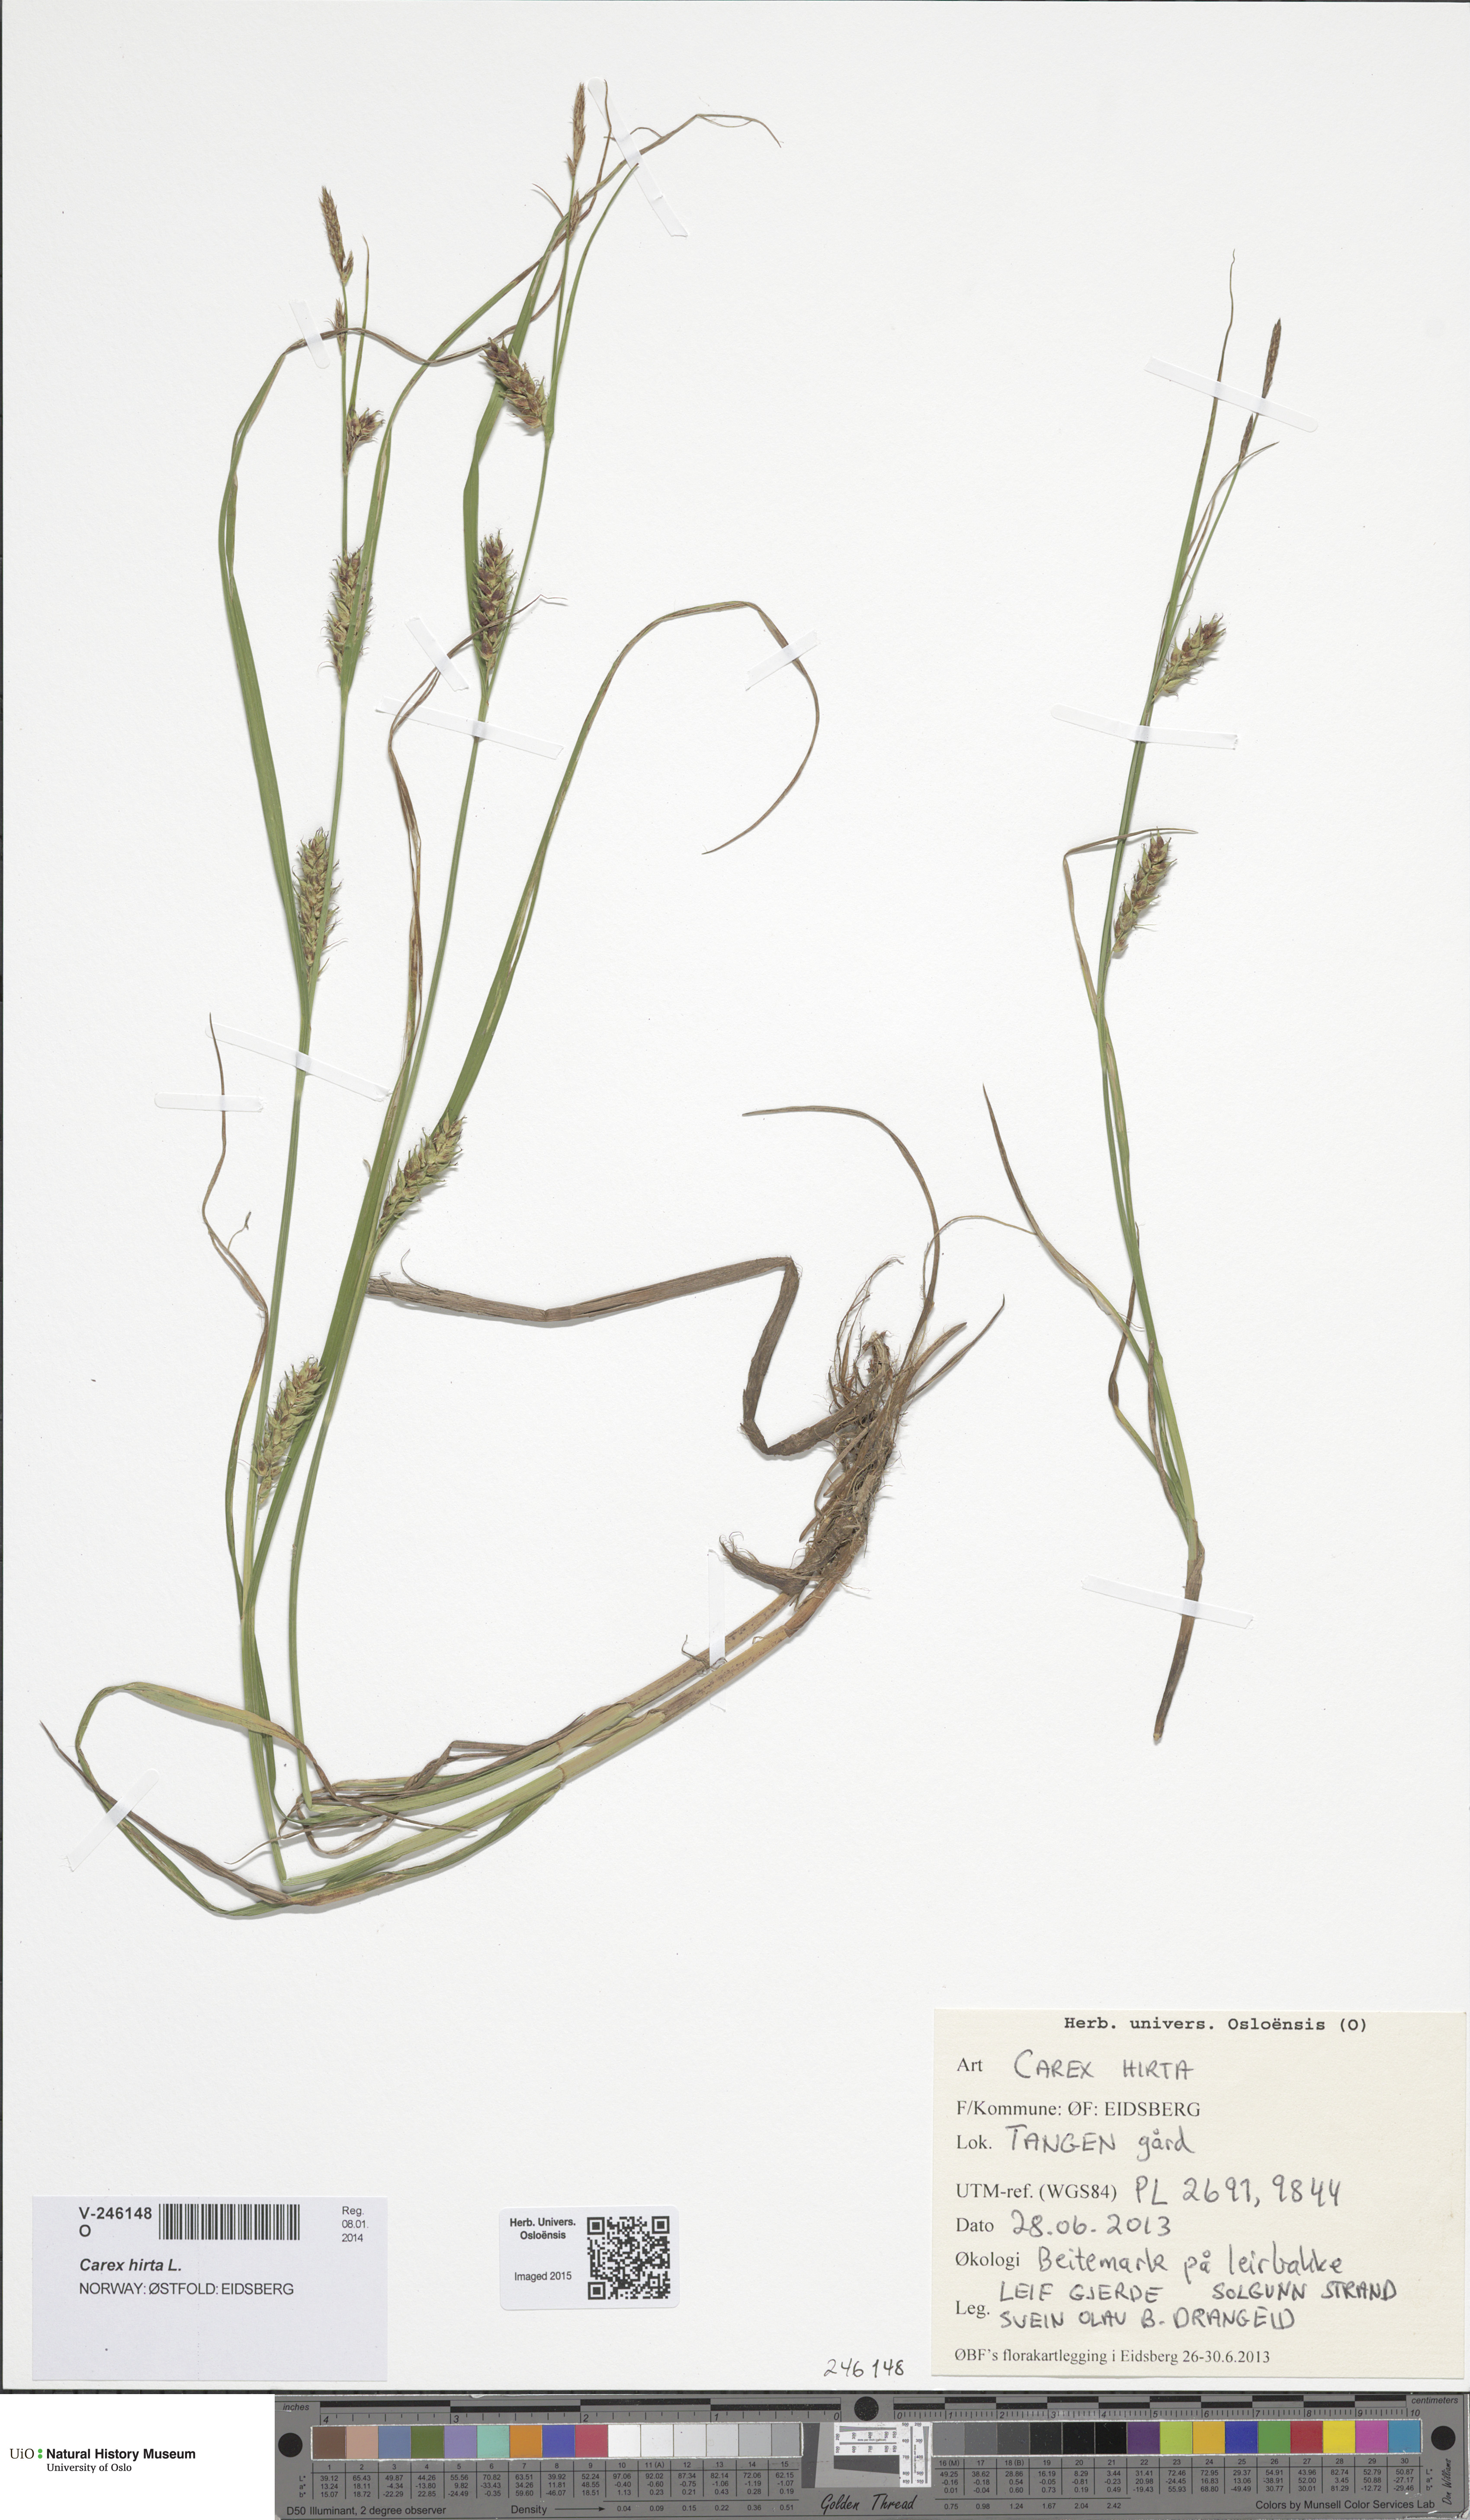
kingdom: Plantae
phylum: Tracheophyta
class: Liliopsida
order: Poales
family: Cyperaceae
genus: Carex
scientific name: Carex hirta
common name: Hairy sedge
